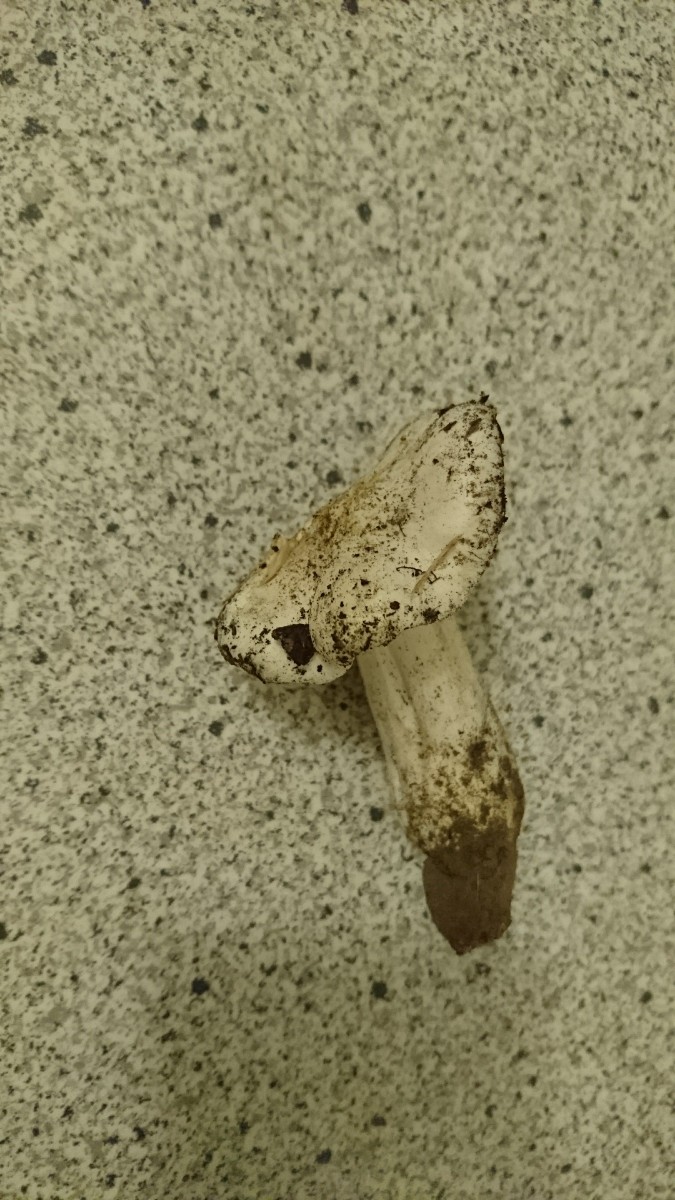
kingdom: Fungi
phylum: Basidiomycota
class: Agaricomycetes
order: Agaricales
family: Tricholomataceae
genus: Tricholoma
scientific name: Tricholoma columbetta
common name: silke-ridderhat
